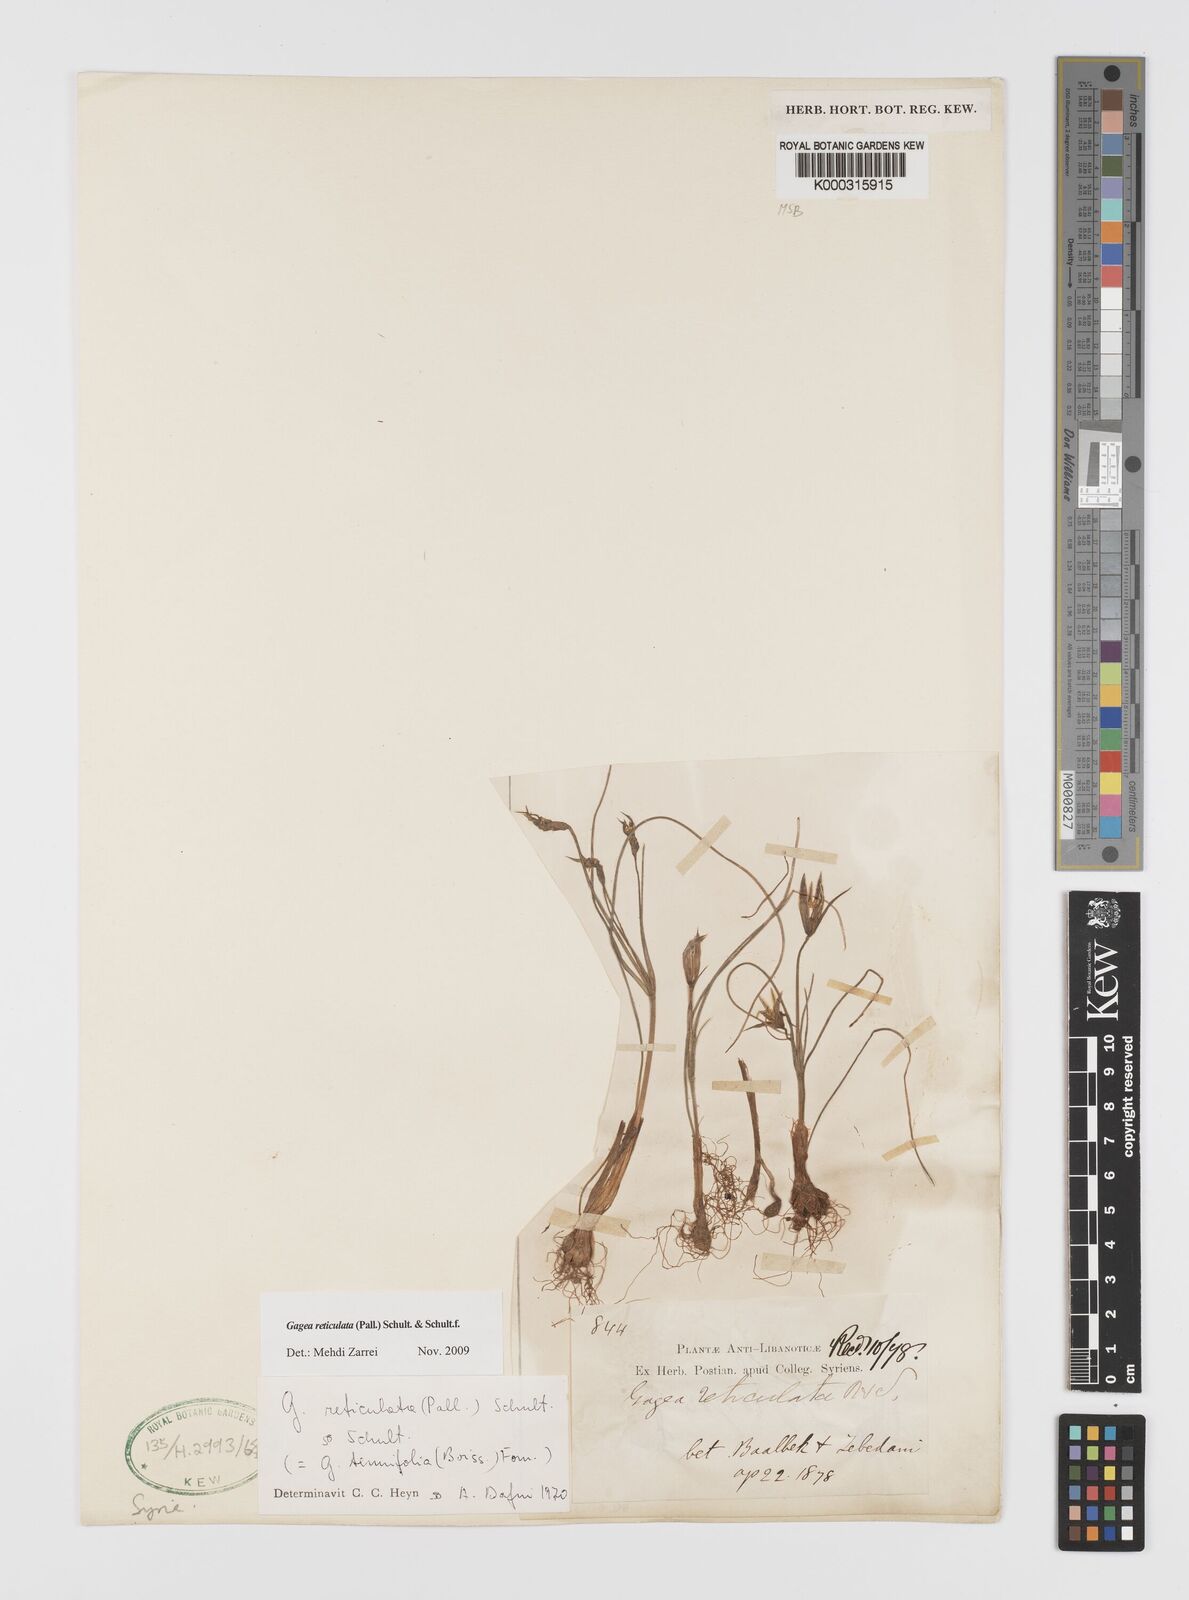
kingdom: Plantae
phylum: Tracheophyta
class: Liliopsida
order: Liliales
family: Liliaceae
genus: Gagea
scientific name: Gagea reticulata
